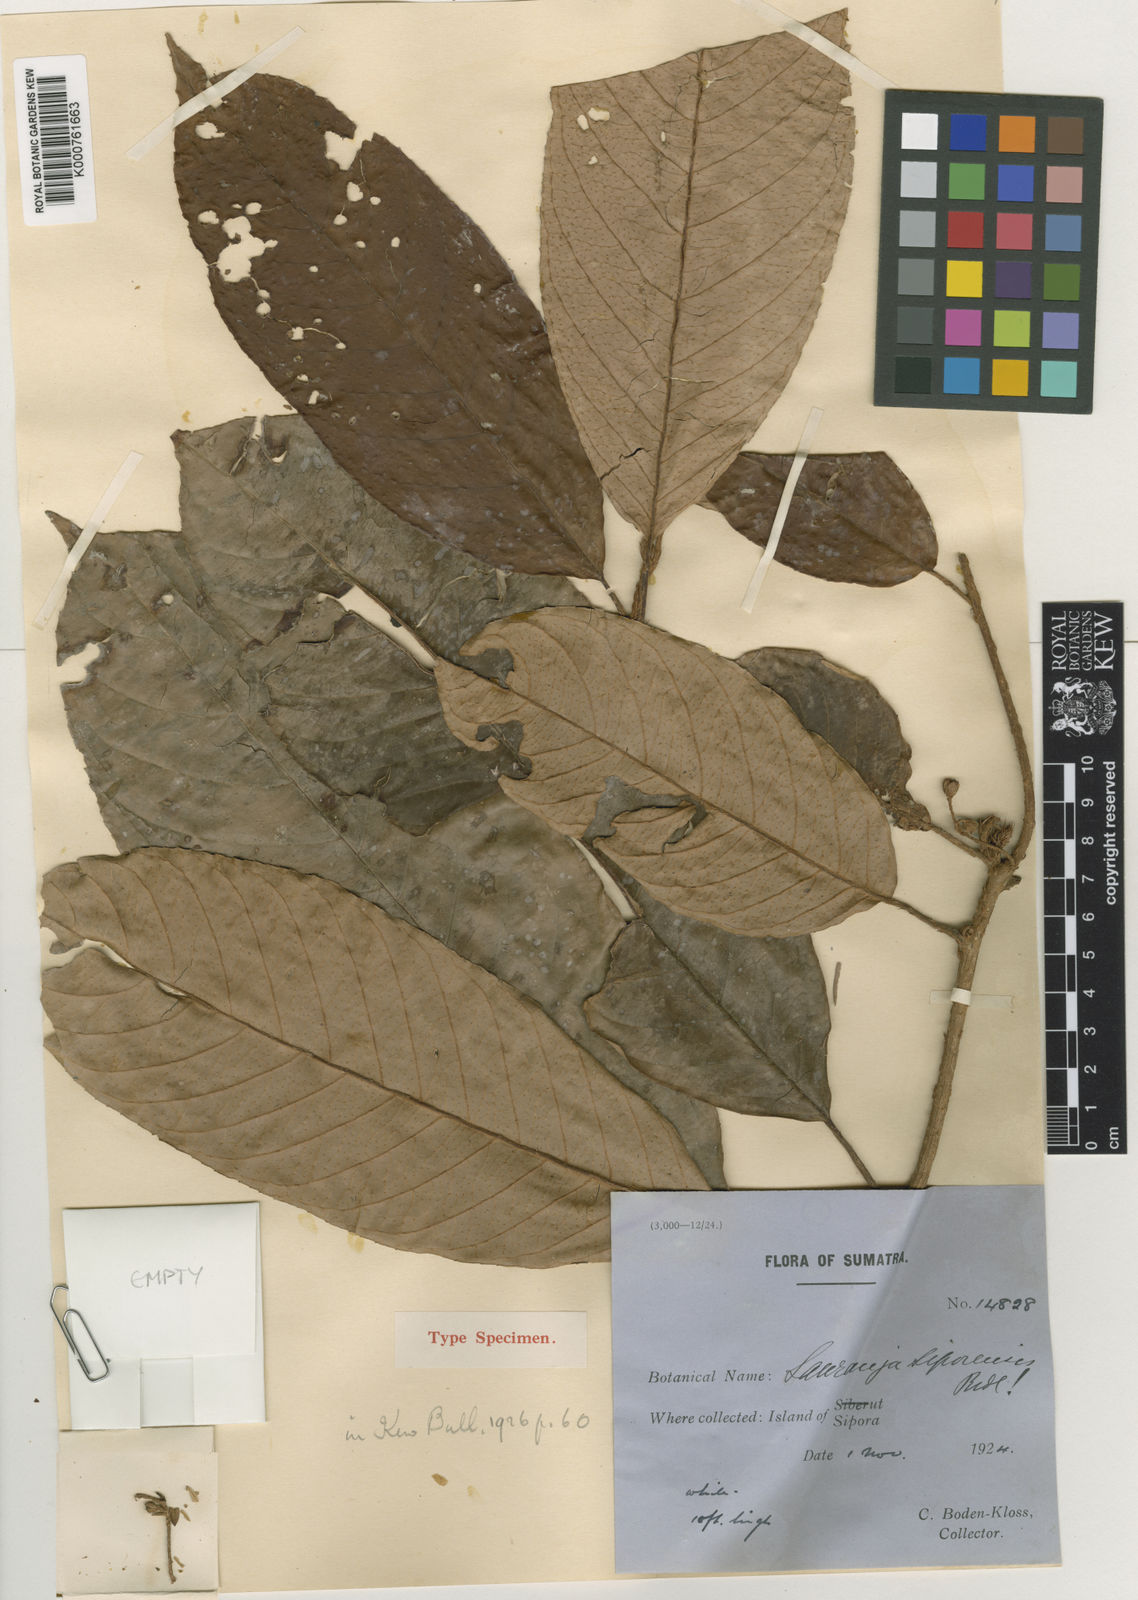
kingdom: Plantae
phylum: Tracheophyta
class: Magnoliopsida
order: Ericales
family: Actinidiaceae
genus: Saurauia
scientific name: Saurauia siporensis
